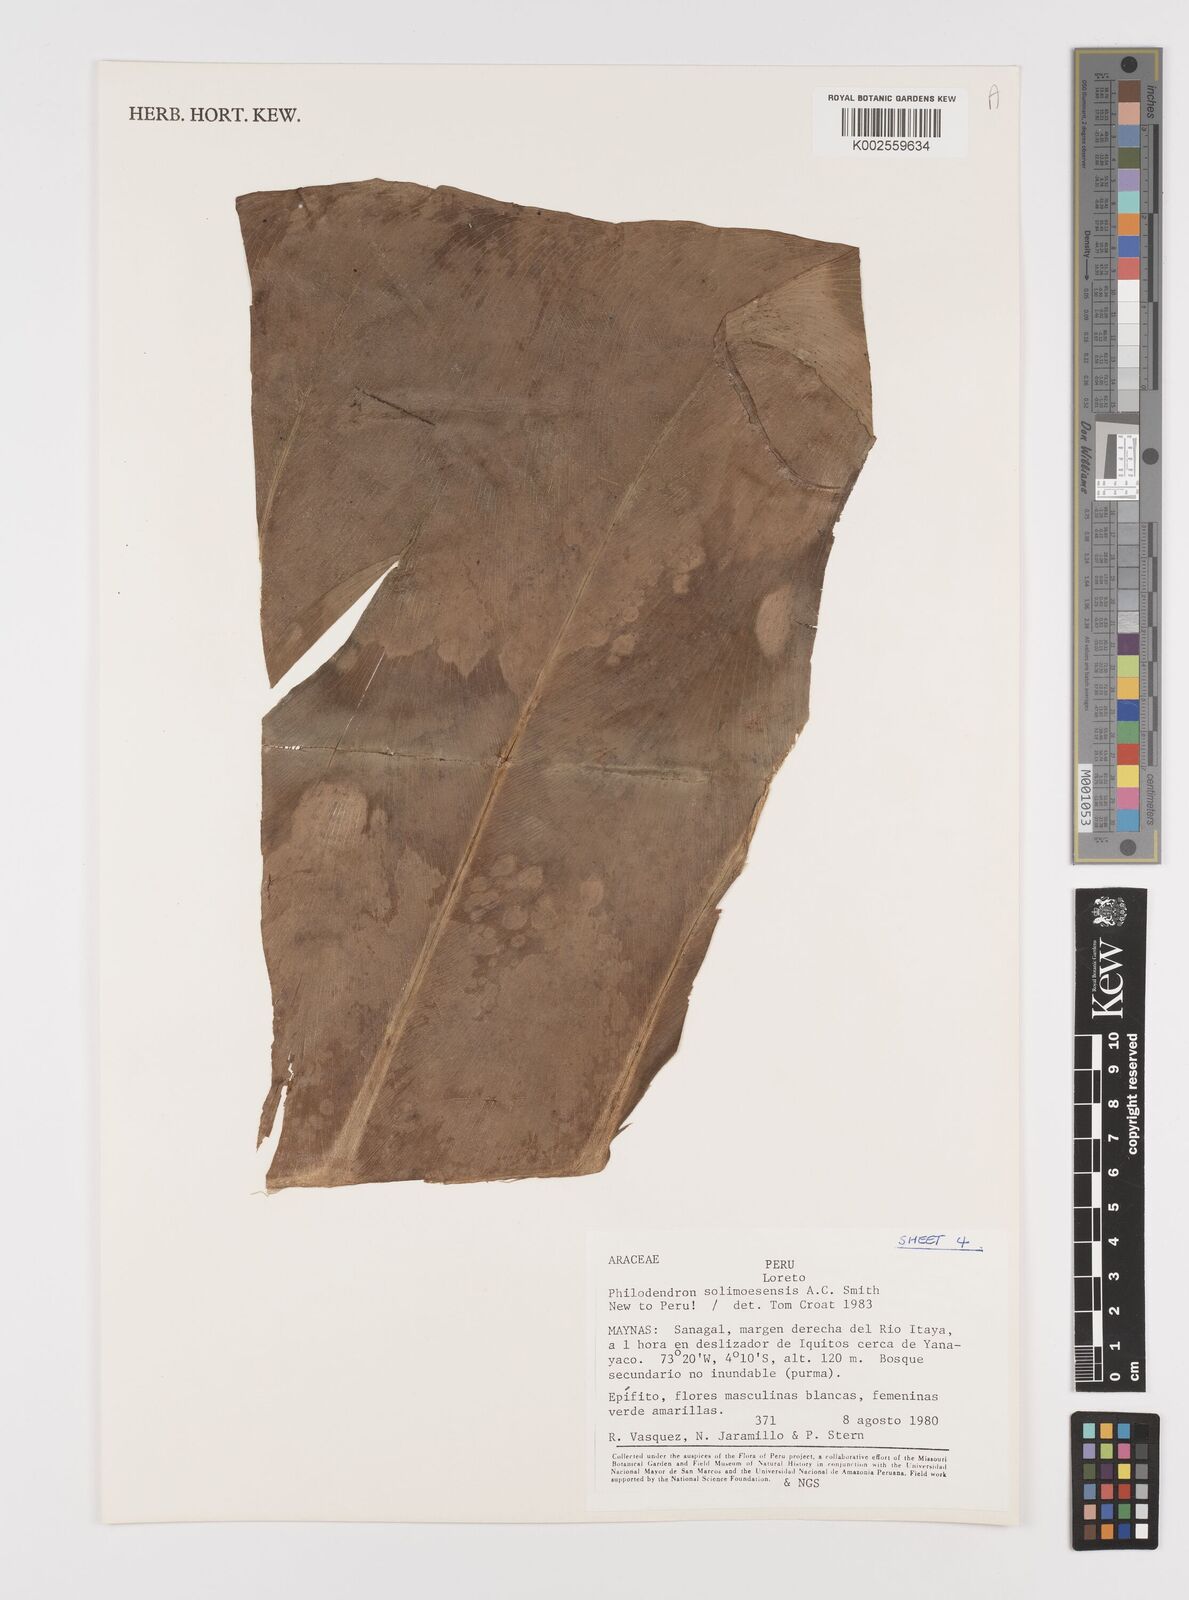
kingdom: Plantae
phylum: Tracheophyta
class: Liliopsida
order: Alismatales
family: Araceae
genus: Thaumatophyllum
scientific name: Thaumatophyllum solimoesense
